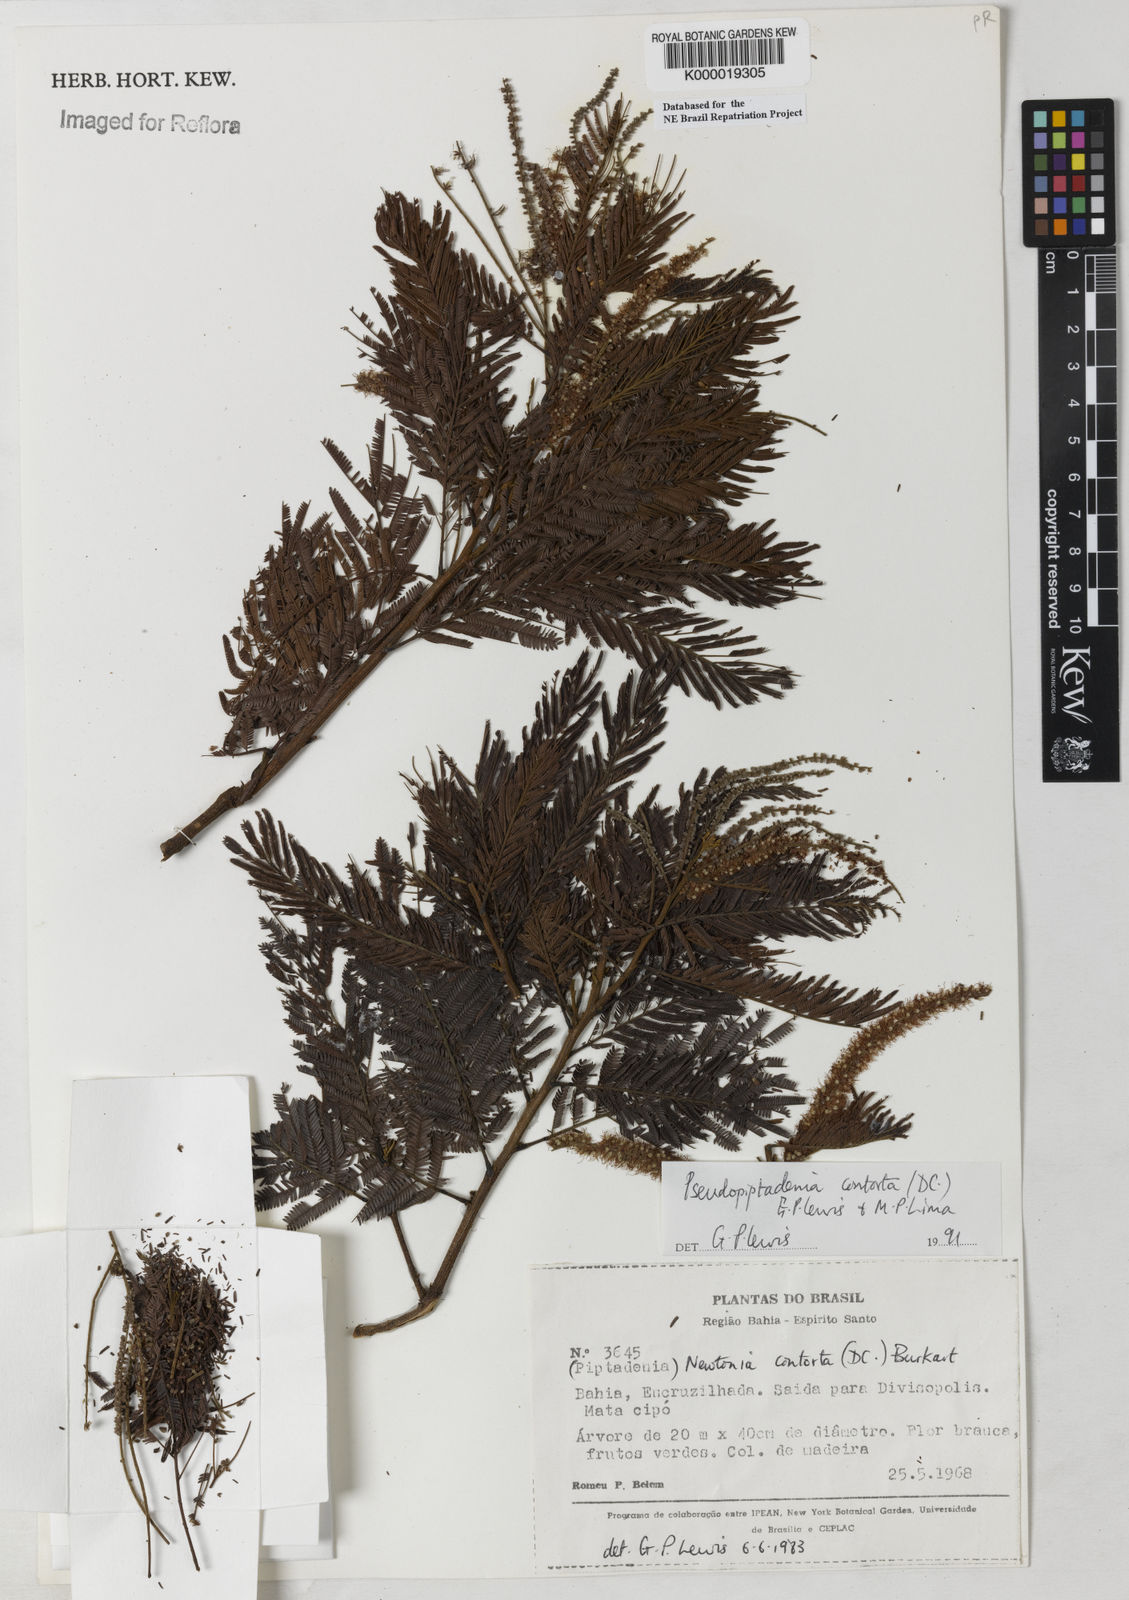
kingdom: Plantae
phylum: Tracheophyta
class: Magnoliopsida
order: Fabales
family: Fabaceae
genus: Pseudopiptadenia
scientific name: Pseudopiptadenia contorta
